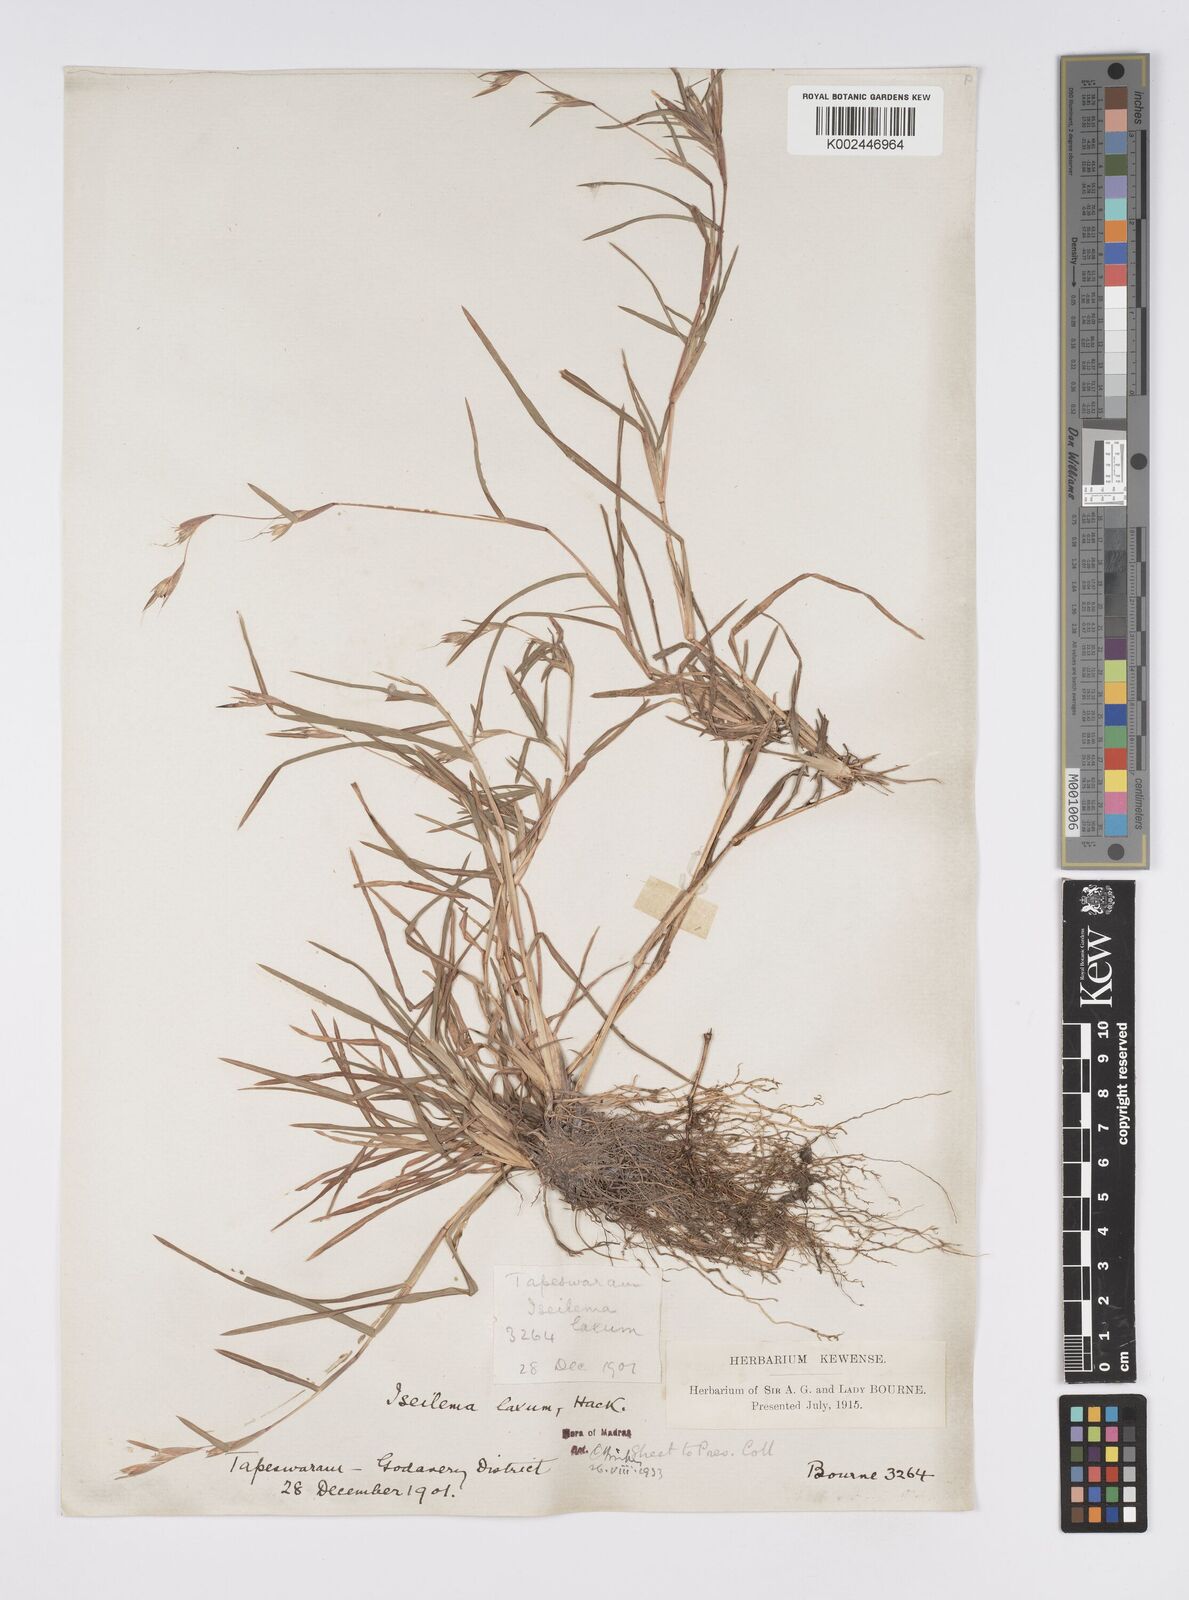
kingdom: Plantae
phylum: Tracheophyta
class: Liliopsida
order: Poales
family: Poaceae
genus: Iseilema
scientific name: Iseilema prostratum
